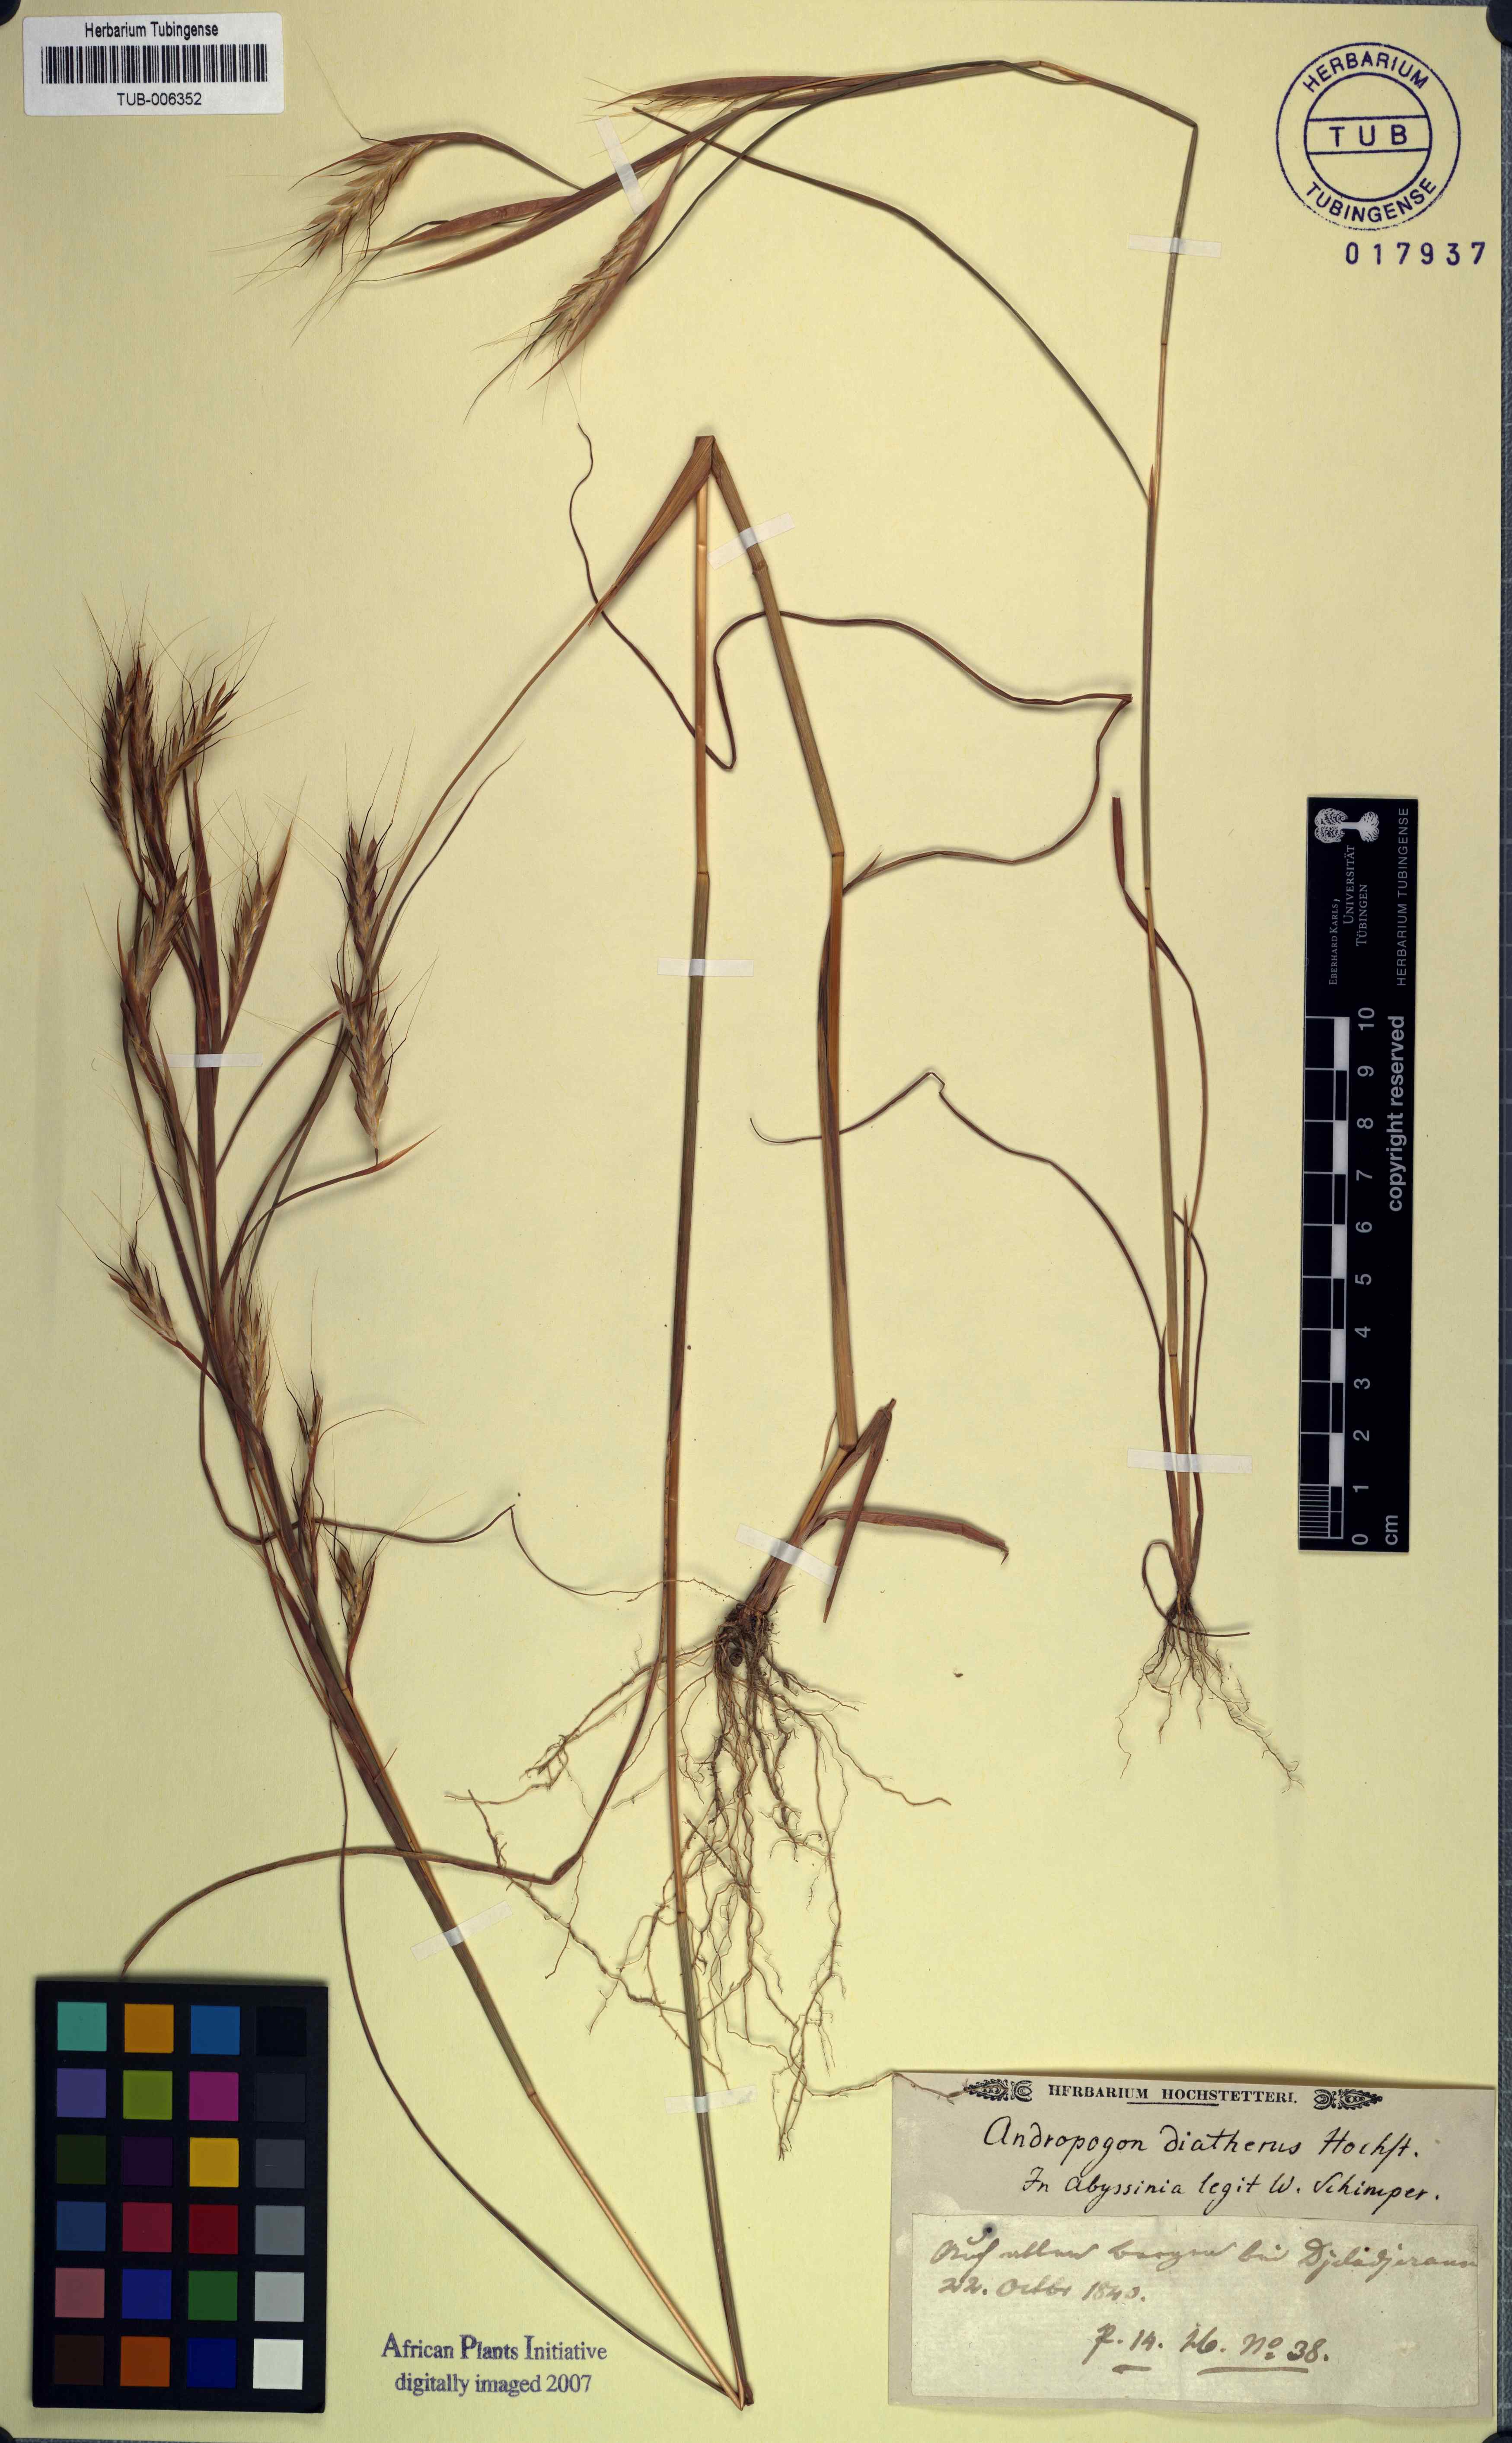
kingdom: Plantae
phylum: Tracheophyta
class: Liliopsida
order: Poales
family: Poaceae
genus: Ischaemum
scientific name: Ischaemum latifolium
